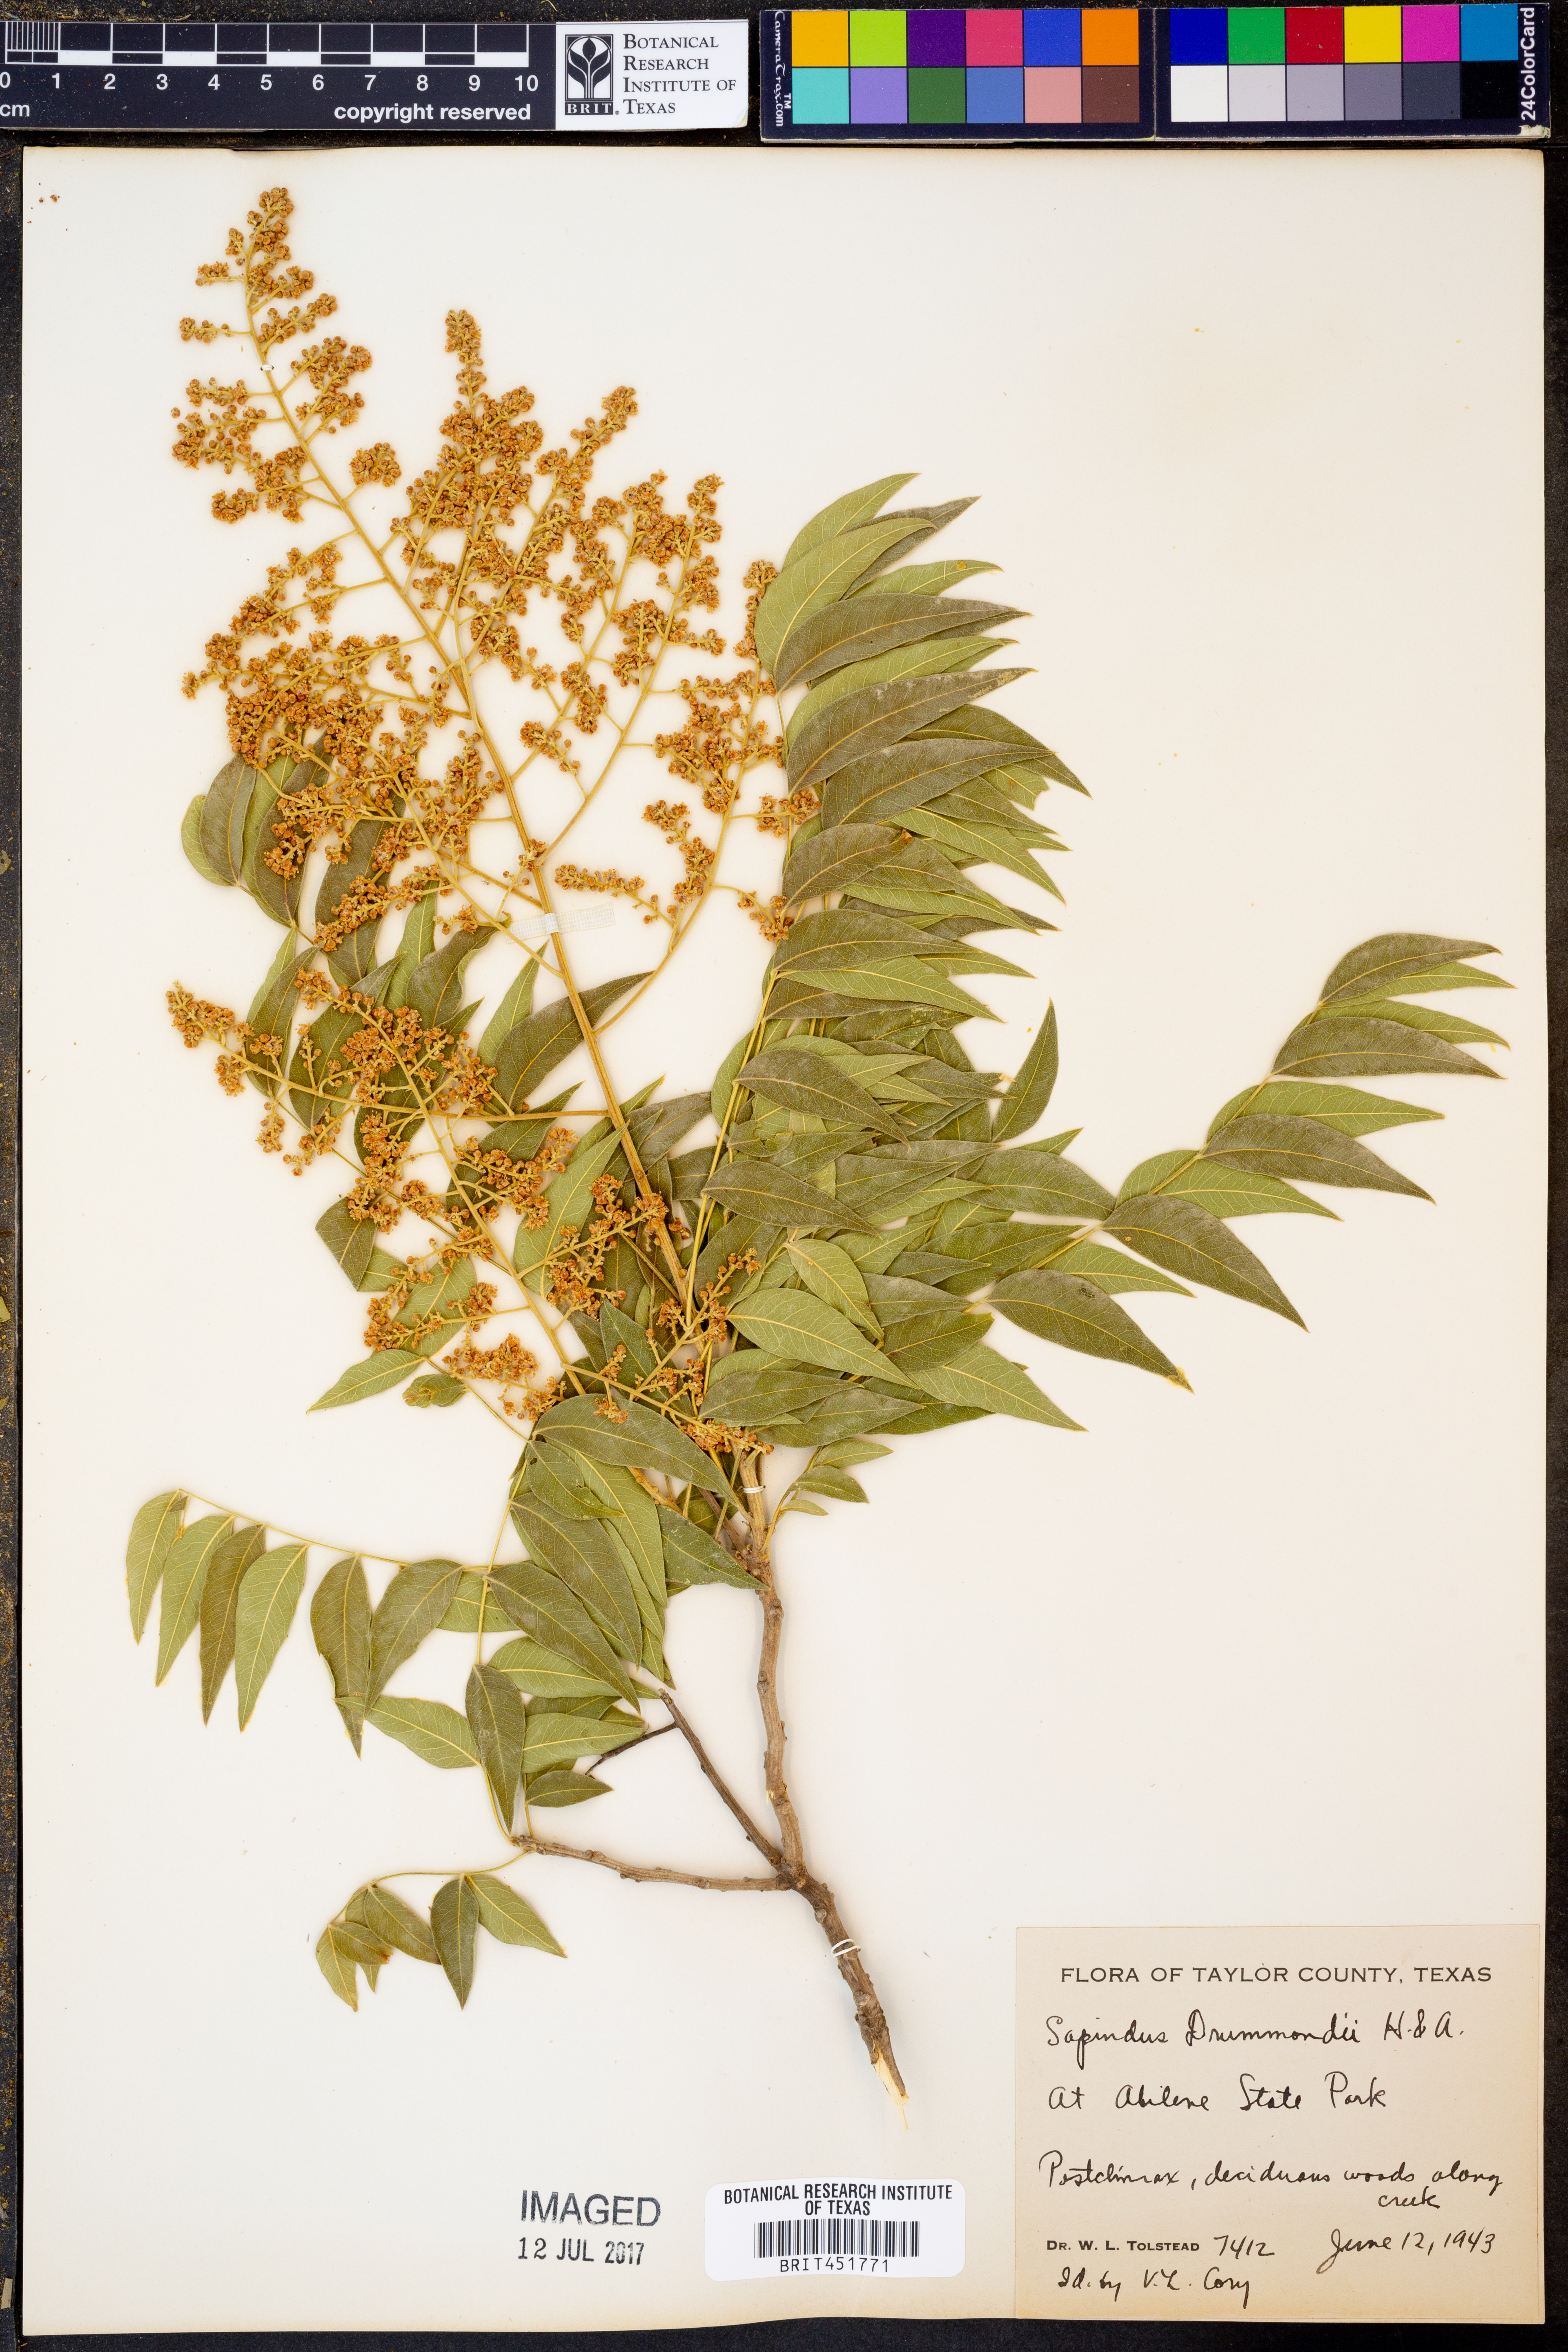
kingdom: Plantae
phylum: Tracheophyta
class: Magnoliopsida
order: Sapindales
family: Sapindaceae
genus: Sapindus
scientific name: Sapindus drummondii
